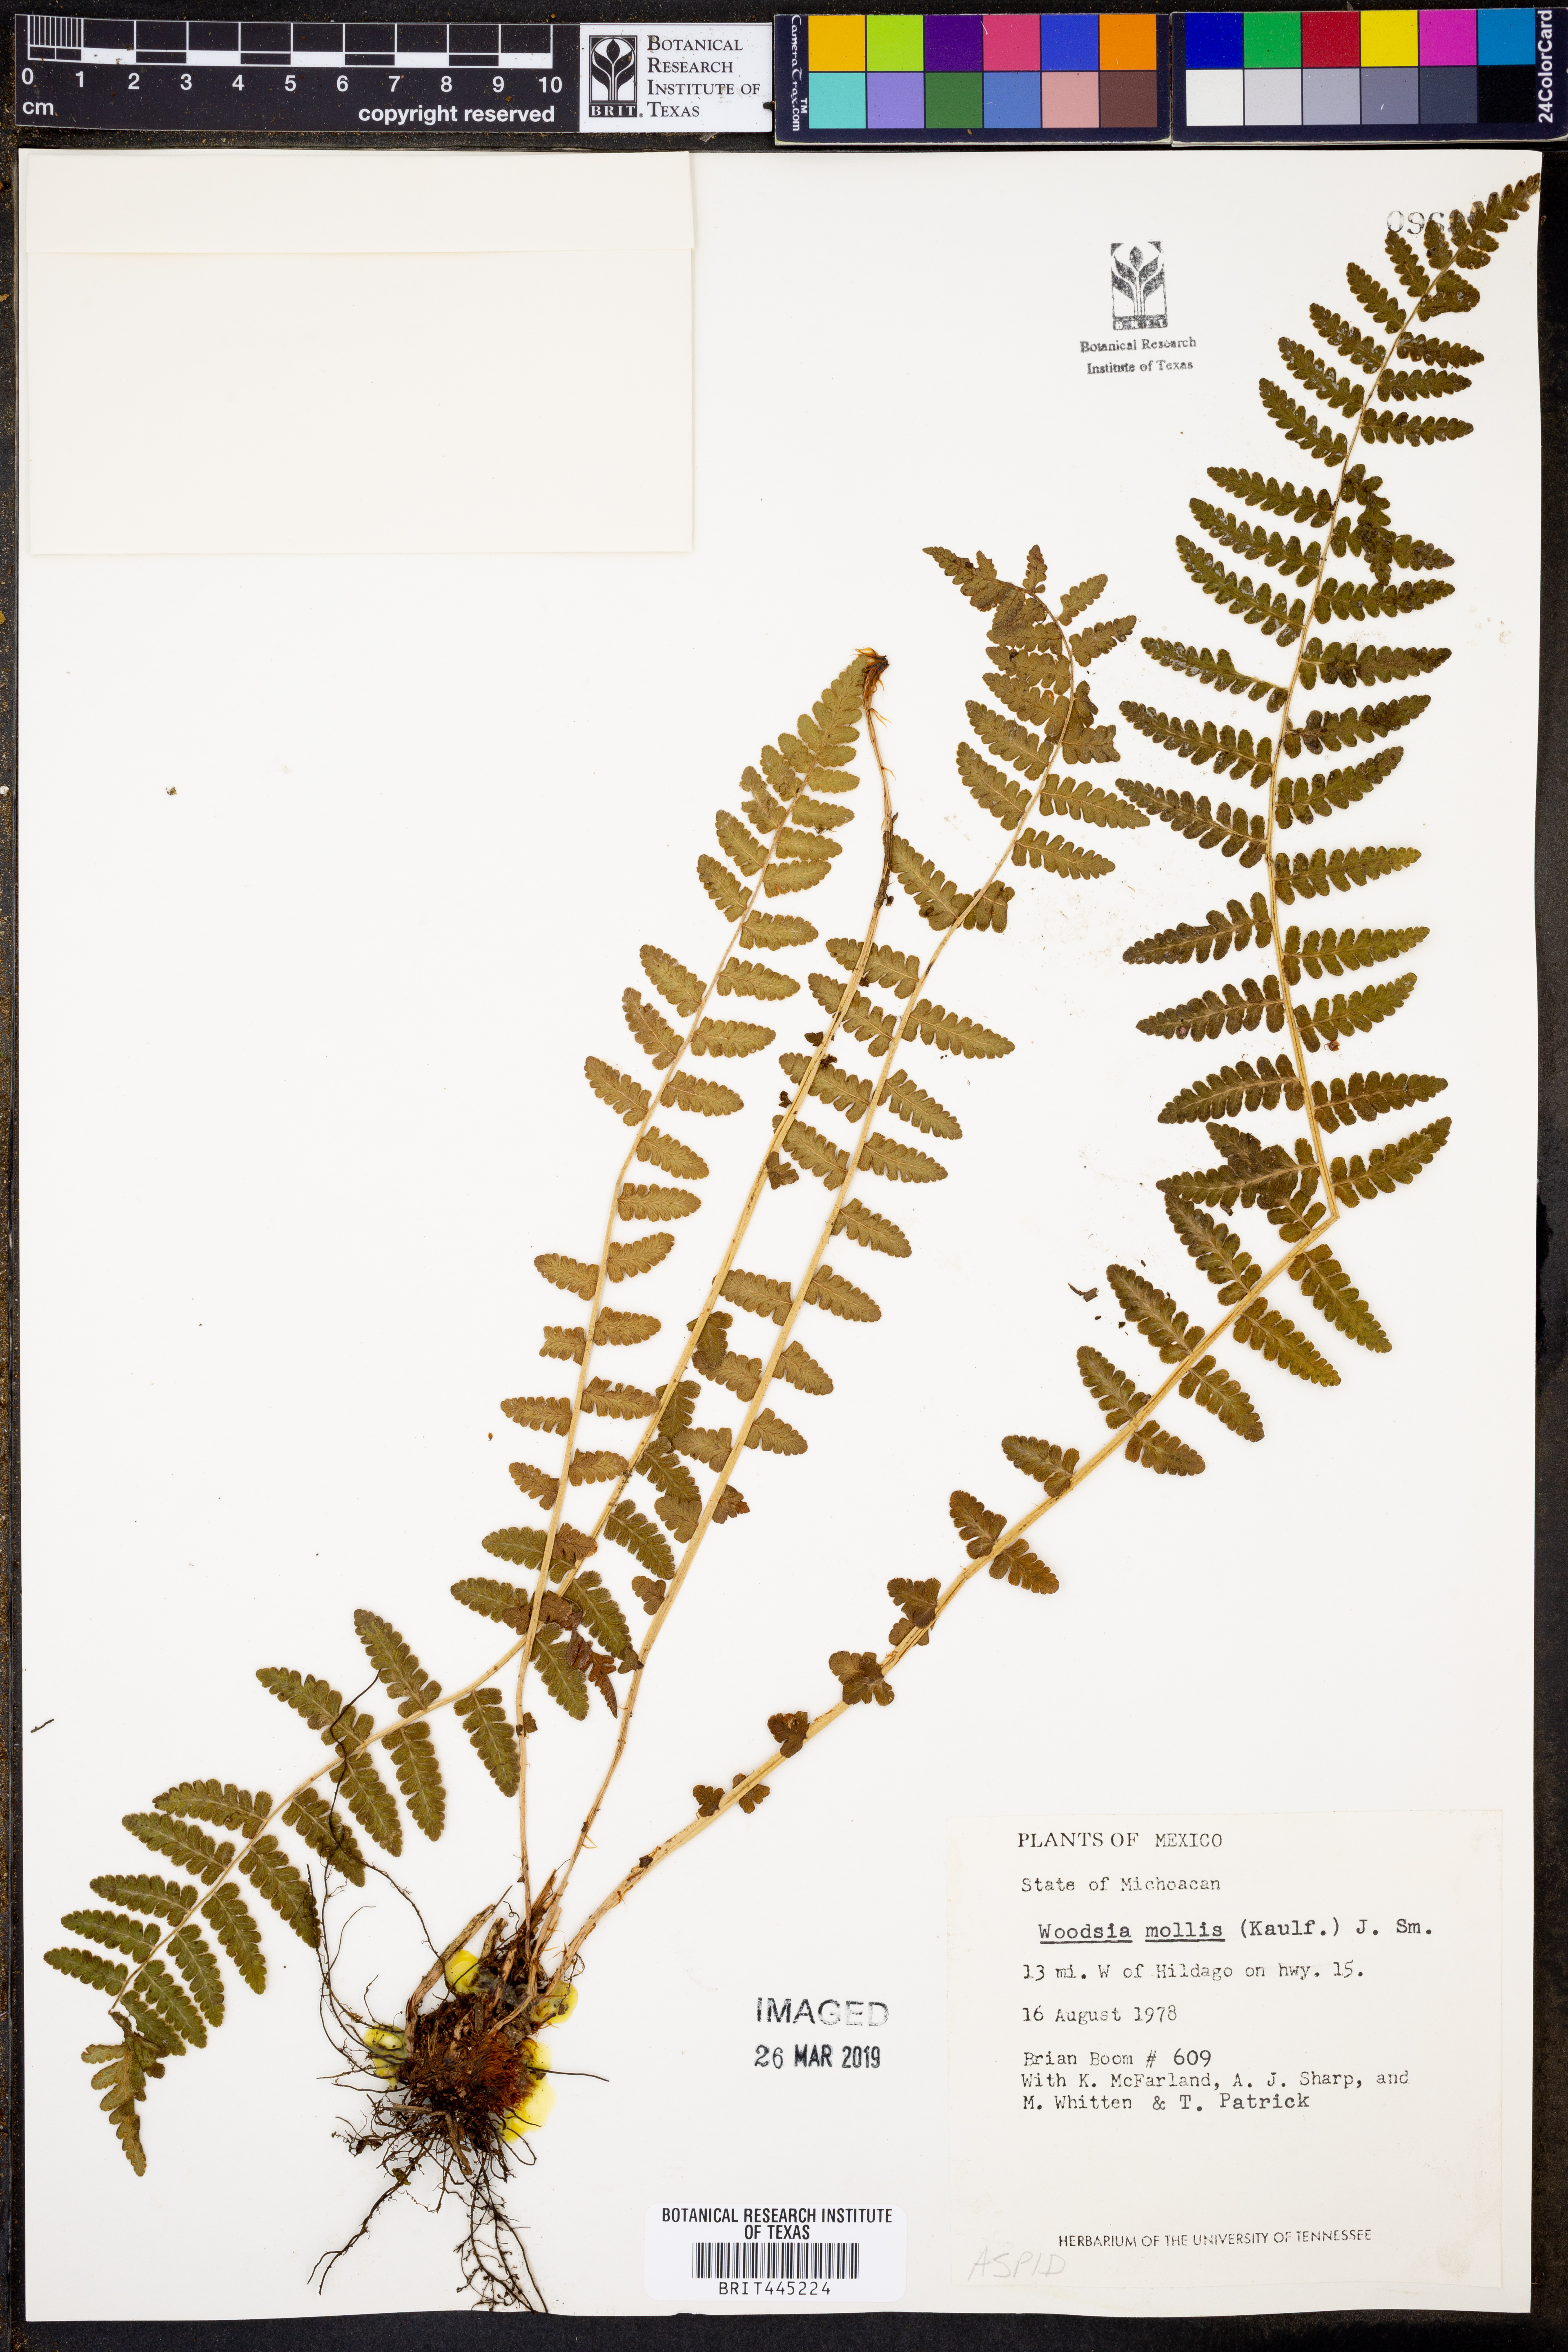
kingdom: Plantae
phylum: Tracheophyta
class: Polypodiopsida
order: Polypodiales
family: Woodsiaceae
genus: Physematium
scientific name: Physematium molle
